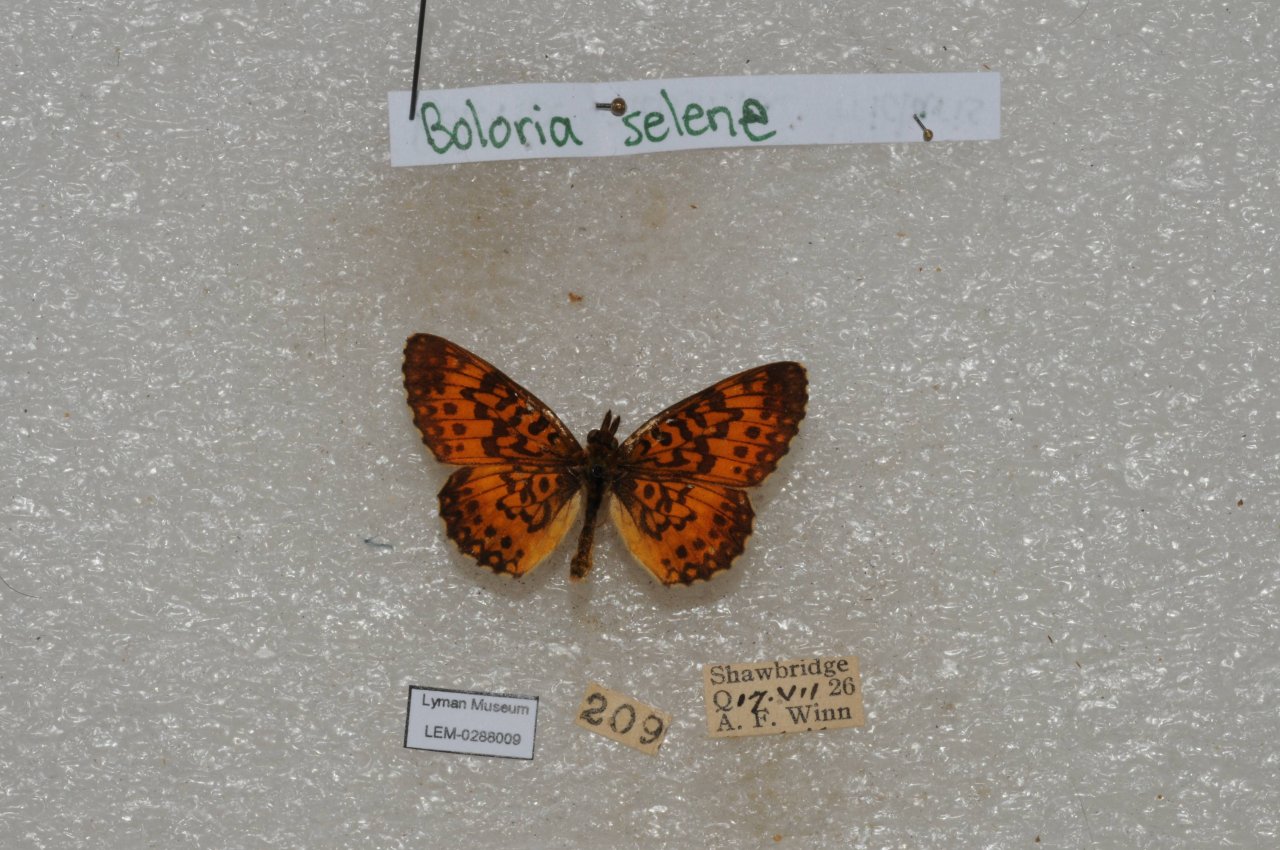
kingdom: Animalia
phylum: Arthropoda
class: Insecta
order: Lepidoptera
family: Nymphalidae
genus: Boloria
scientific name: Boloria selene
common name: Silver-bordered Fritillary
